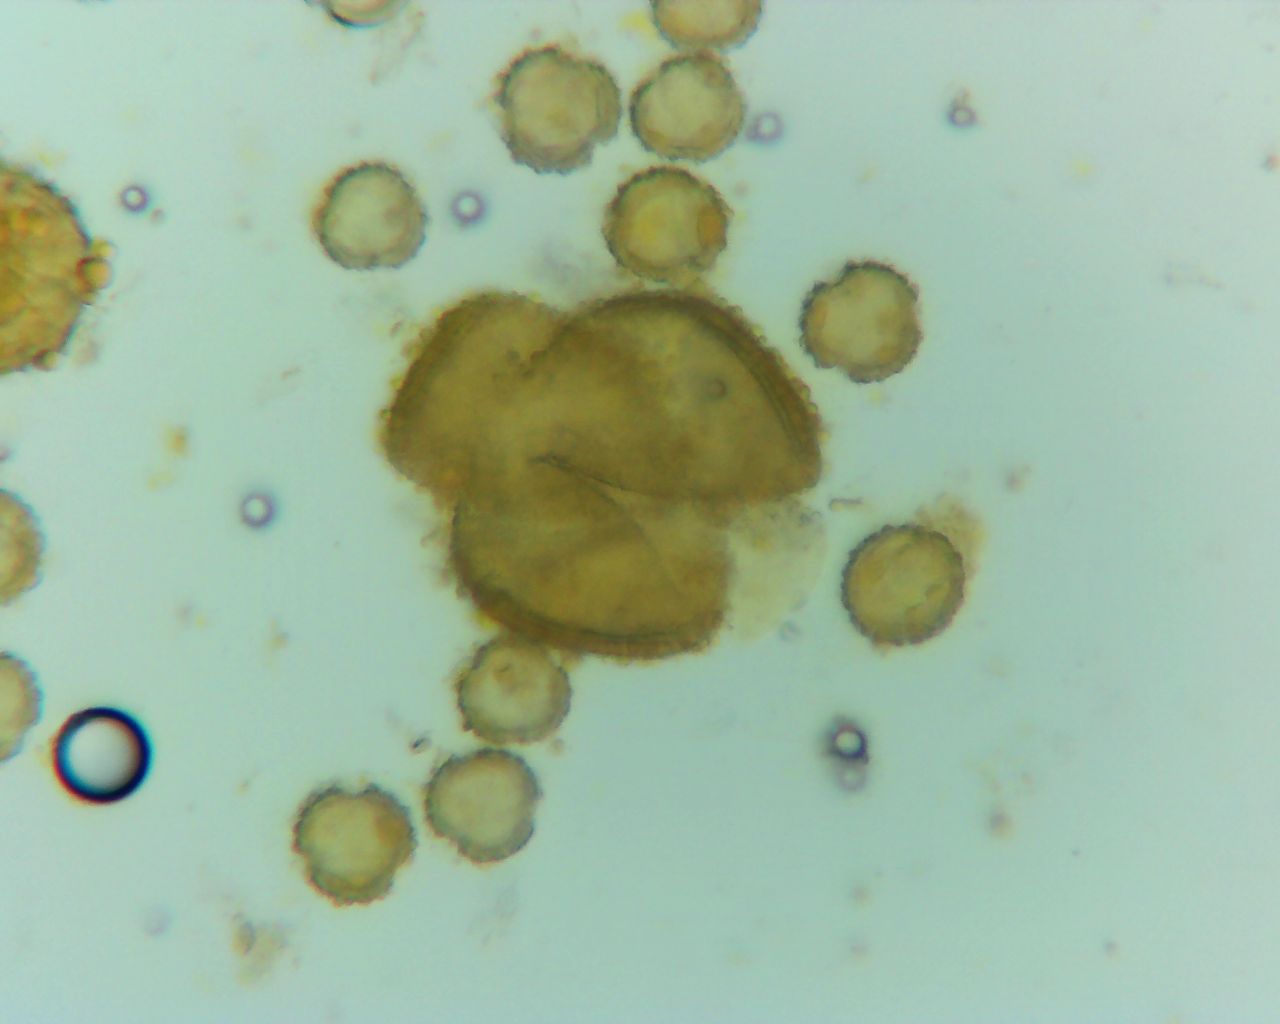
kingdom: Fungi
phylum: Basidiomycota
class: Pucciniomycetes
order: Pucciniales
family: Melampsoraceae
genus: Melampsora
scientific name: Melampsora
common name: skorperust
